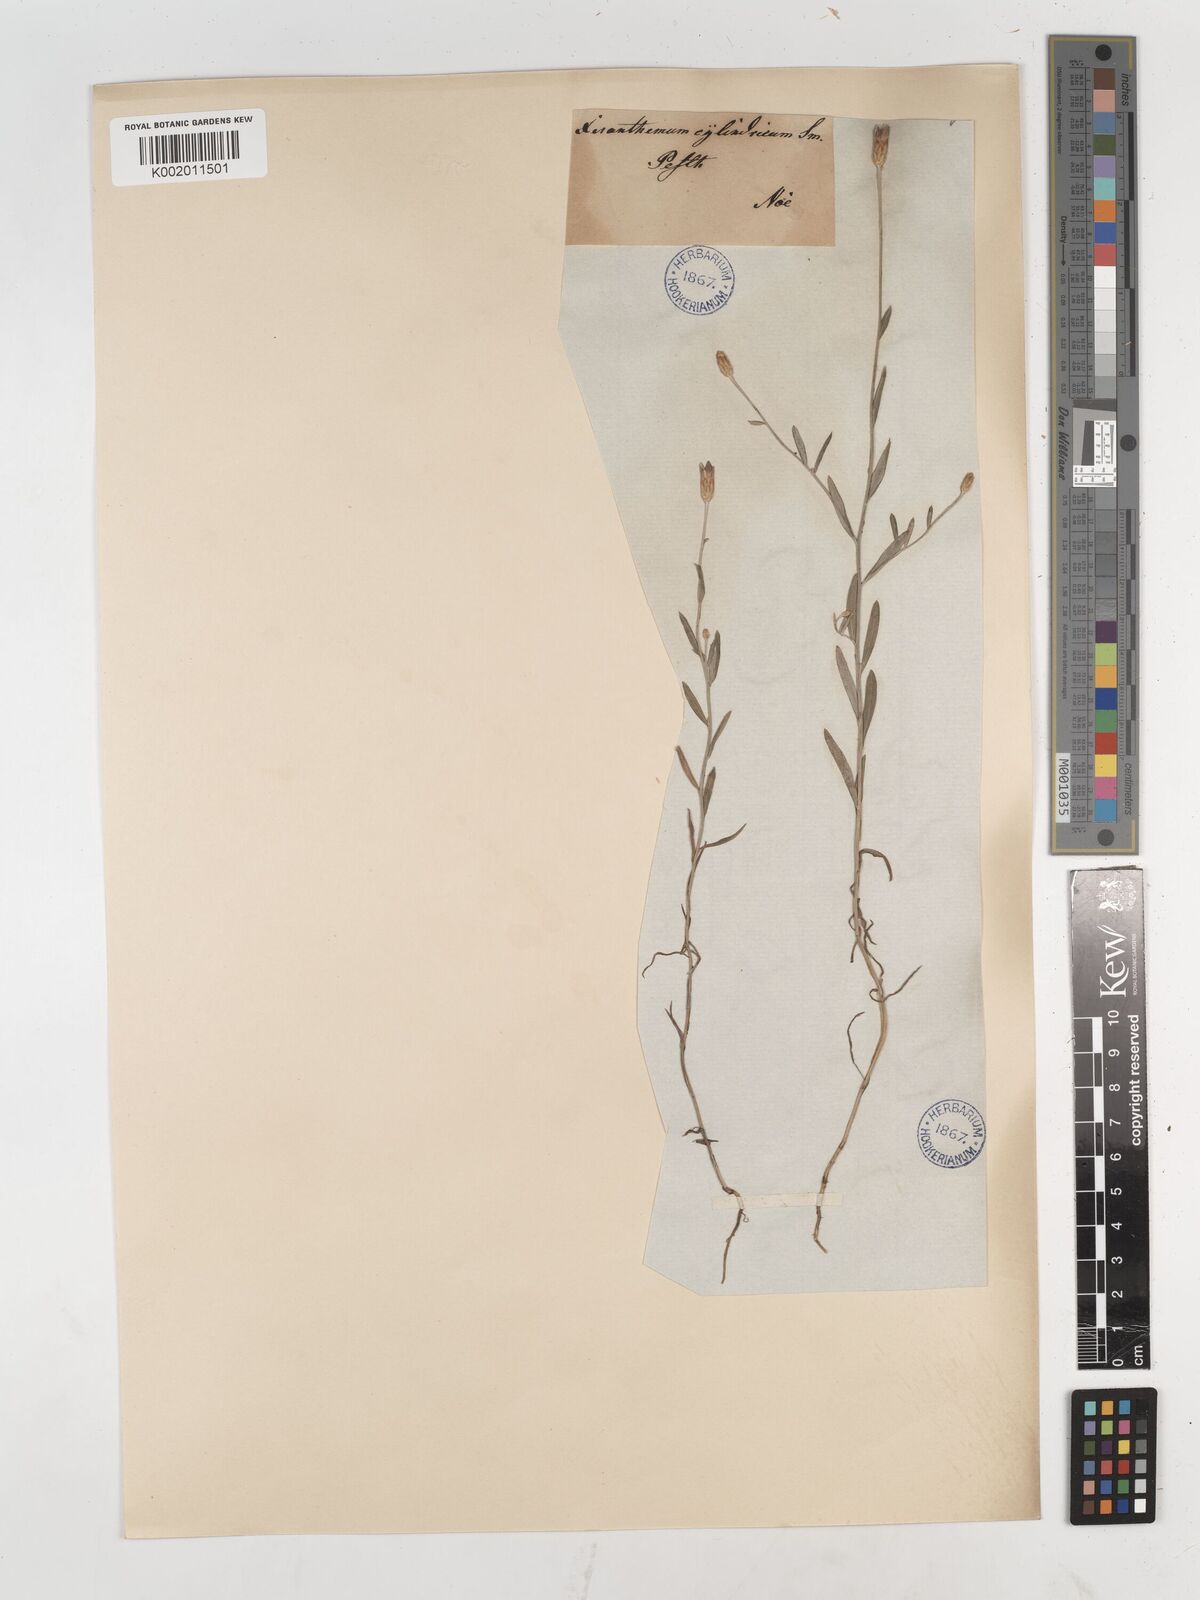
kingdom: Plantae
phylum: Tracheophyta
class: Magnoliopsida
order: Asterales
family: Asteraceae
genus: Xeranthemum
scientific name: Xeranthemum cylindraceum
